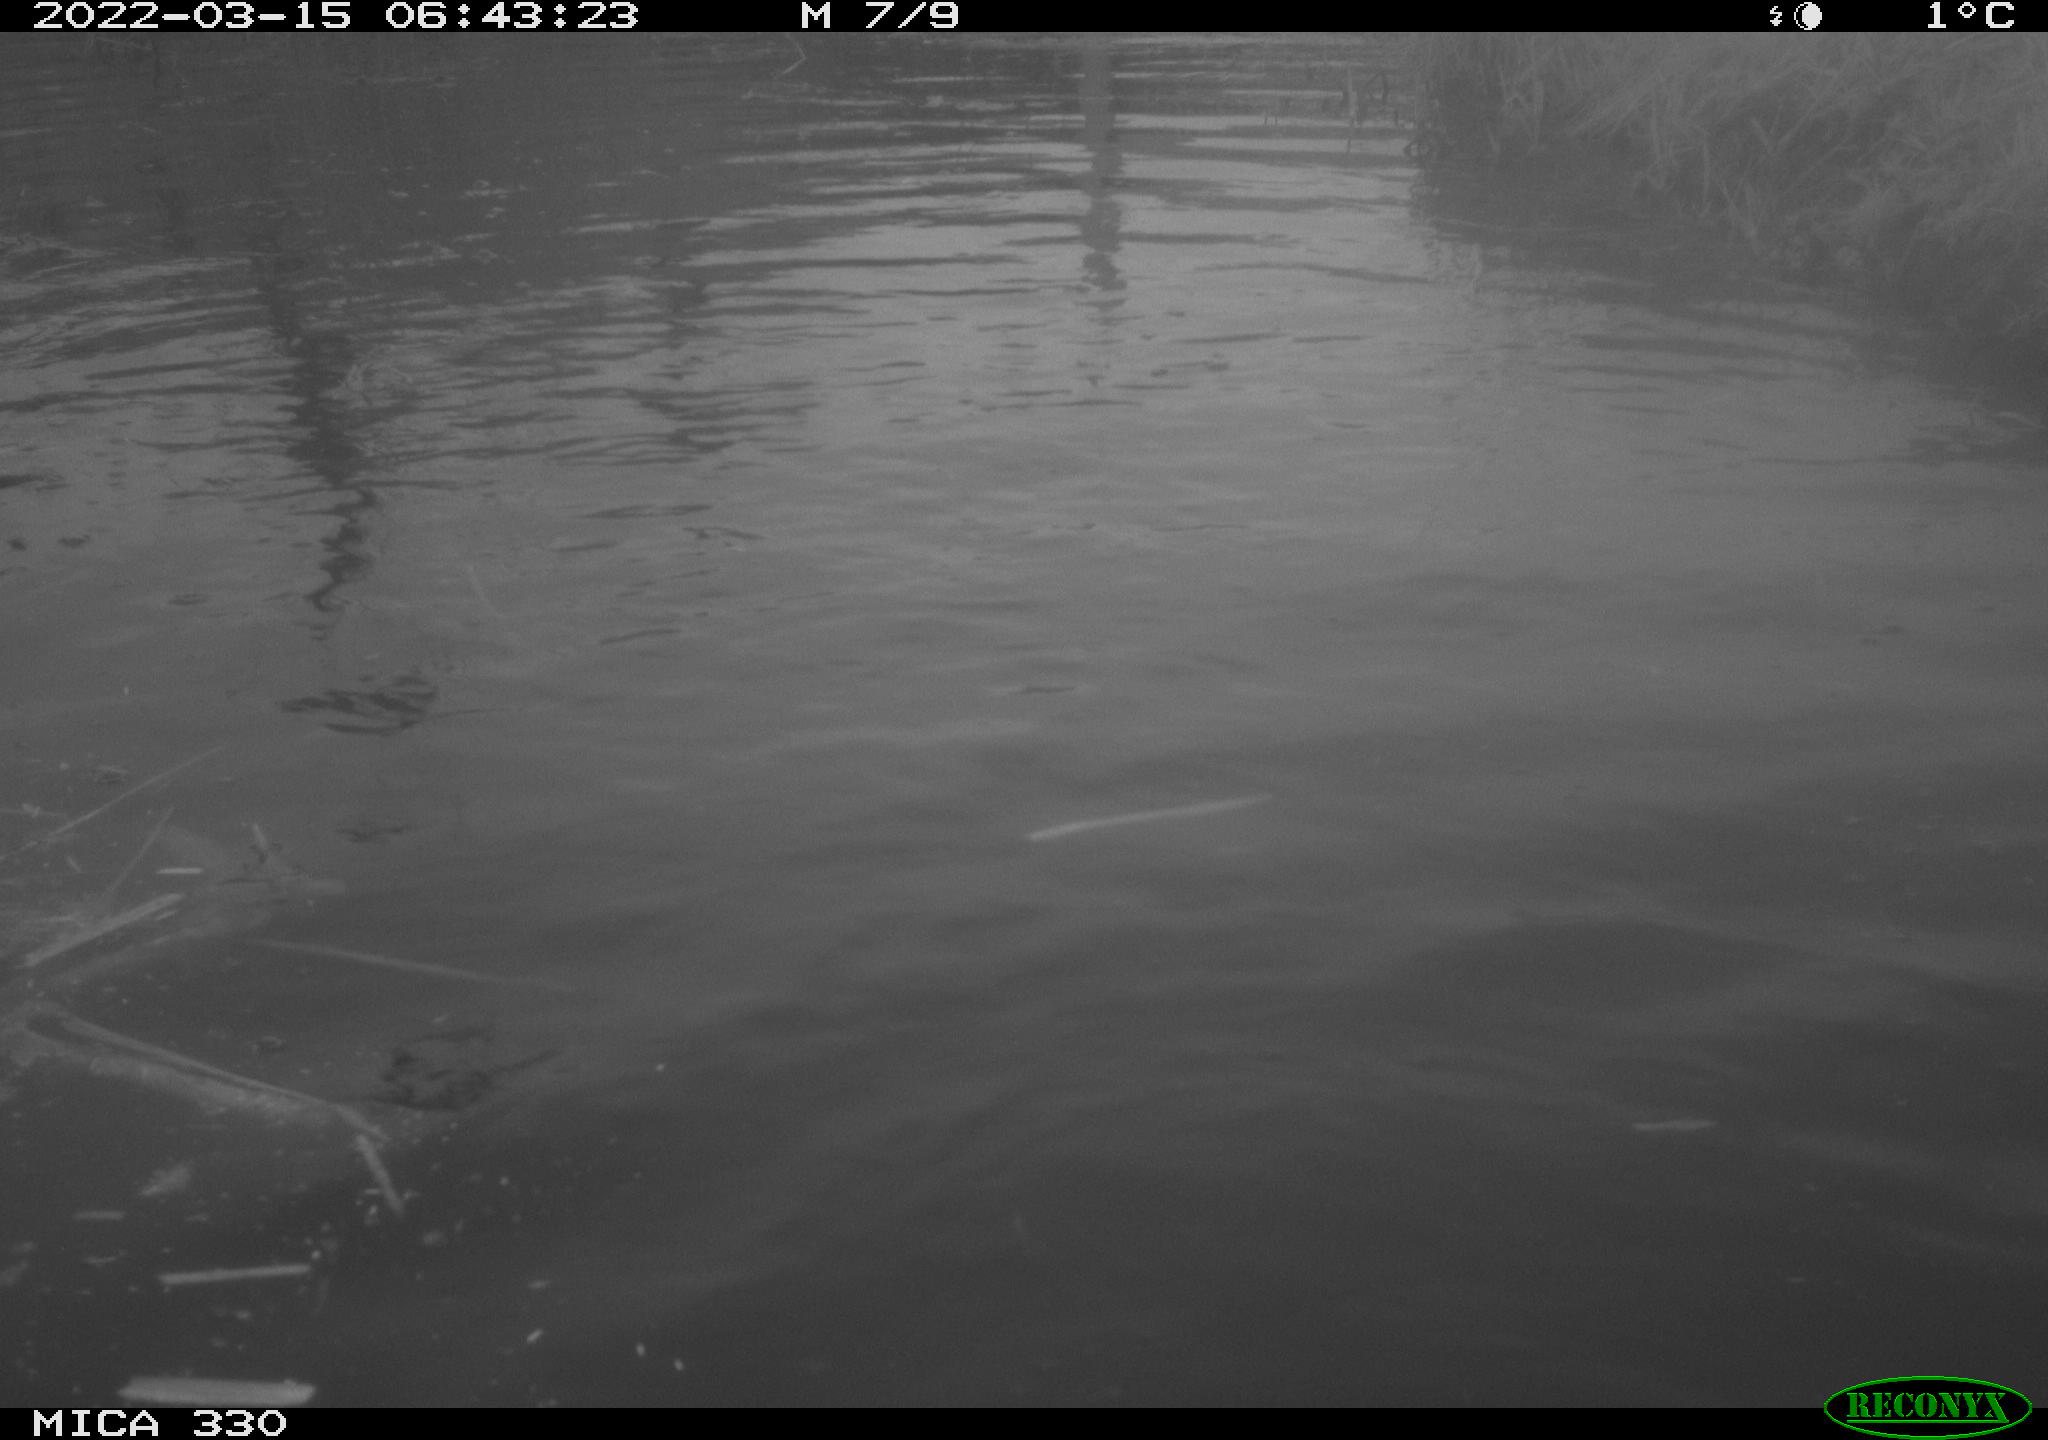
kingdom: Animalia
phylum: Chordata
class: Aves
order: Gruiformes
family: Rallidae
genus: Fulica
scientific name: Fulica atra
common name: Eurasian coot
